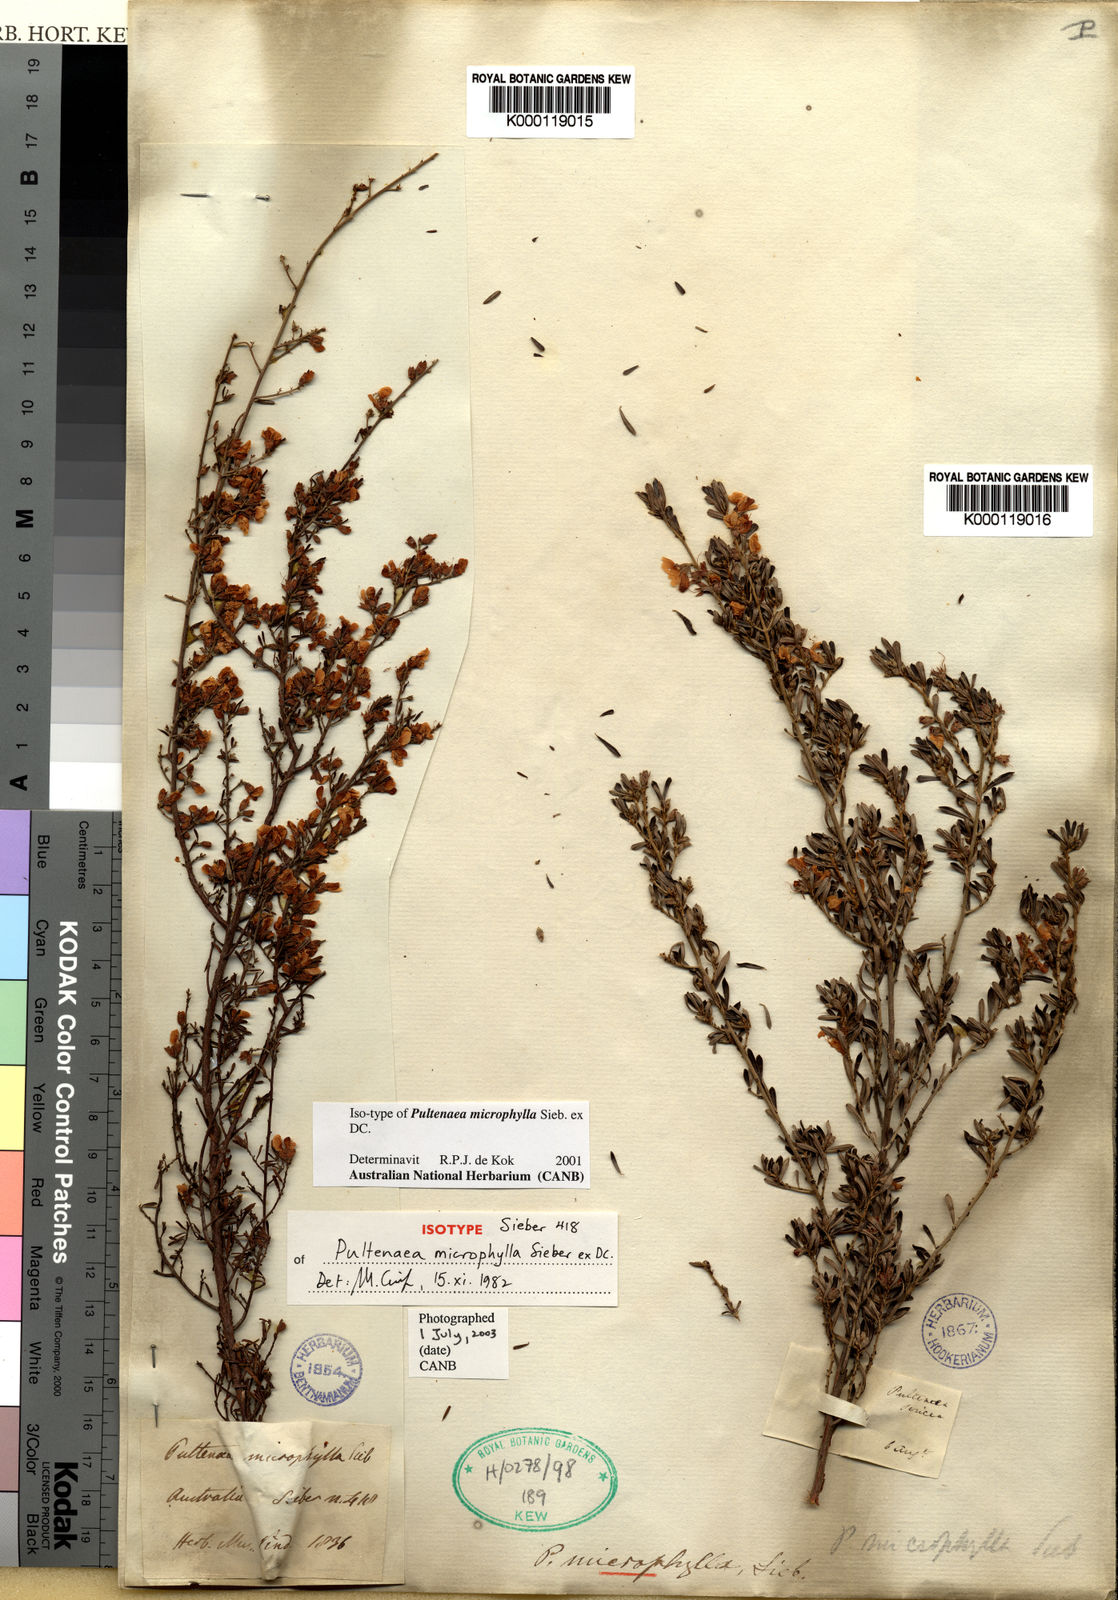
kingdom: Plantae
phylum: Tracheophyta
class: Magnoliopsida
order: Fabales
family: Fabaceae
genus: Pultenaea
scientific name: Pultenaea microphylla
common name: Spreading bush-pea
